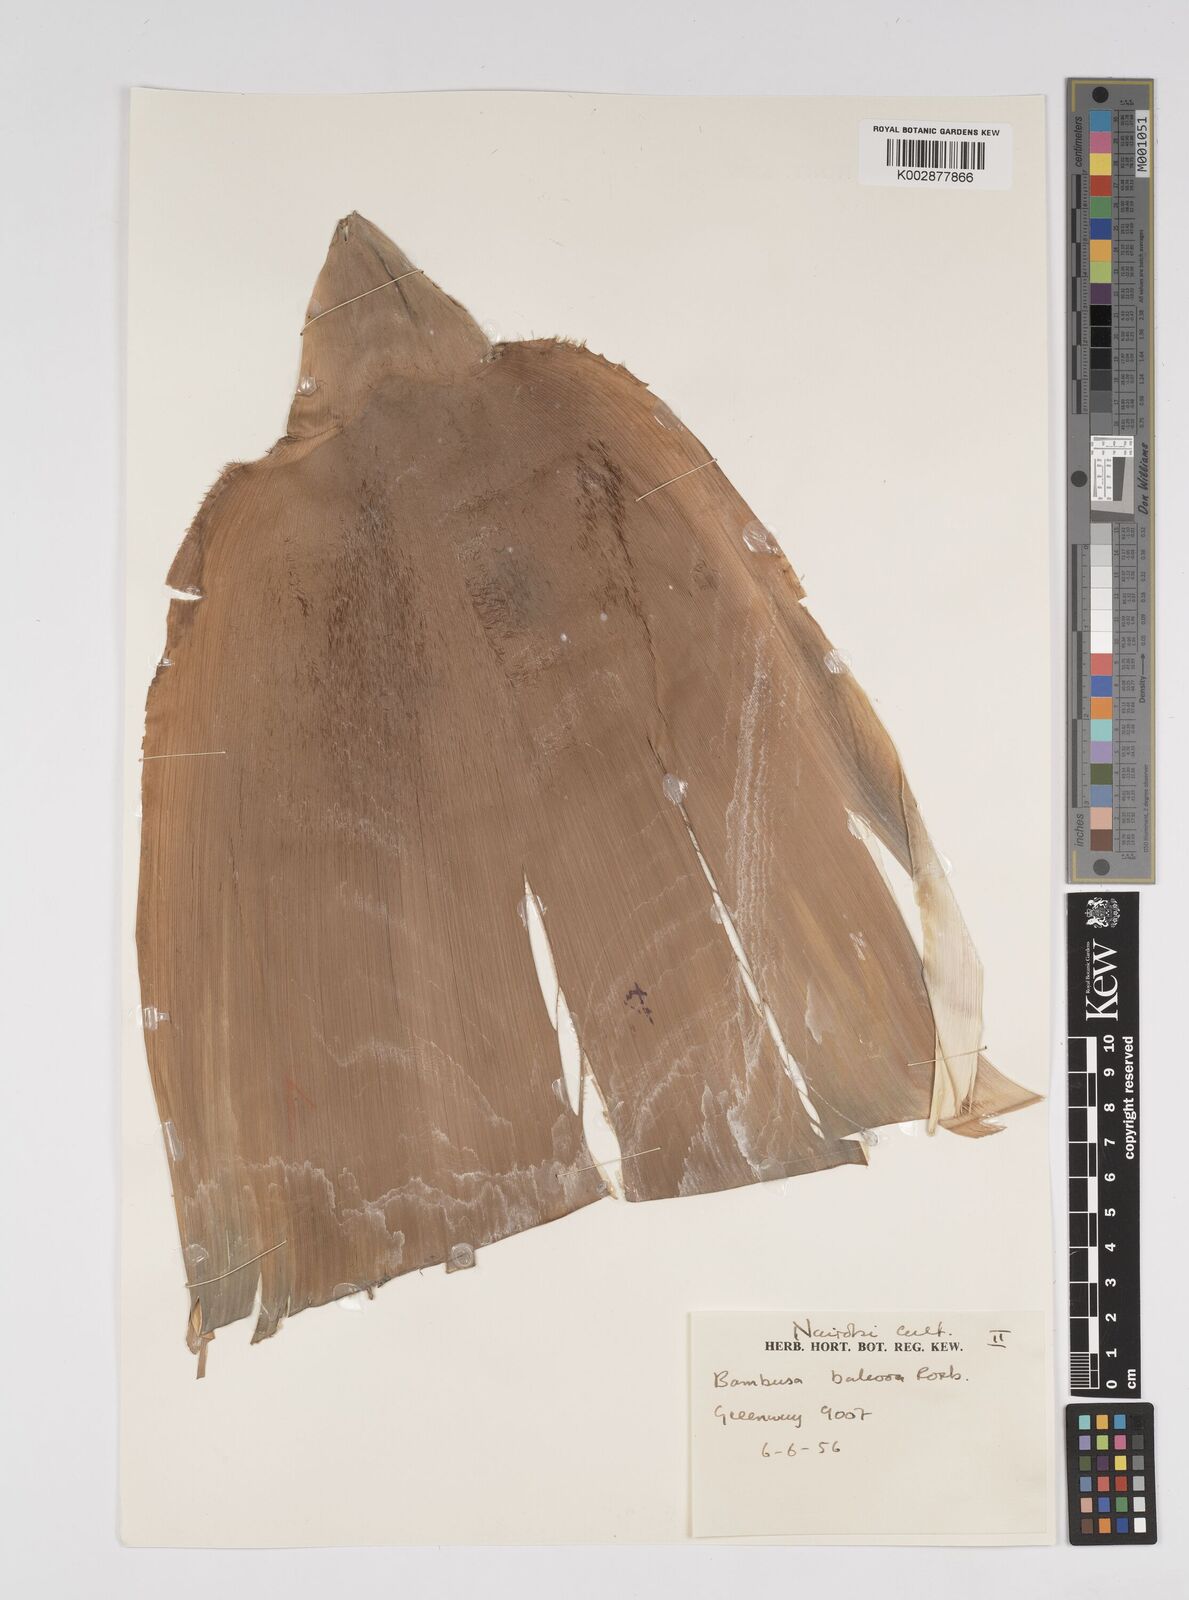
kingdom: Plantae
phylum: Tracheophyta
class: Liliopsida
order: Poales
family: Poaceae
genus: Bambusa
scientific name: Bambusa balcooa
